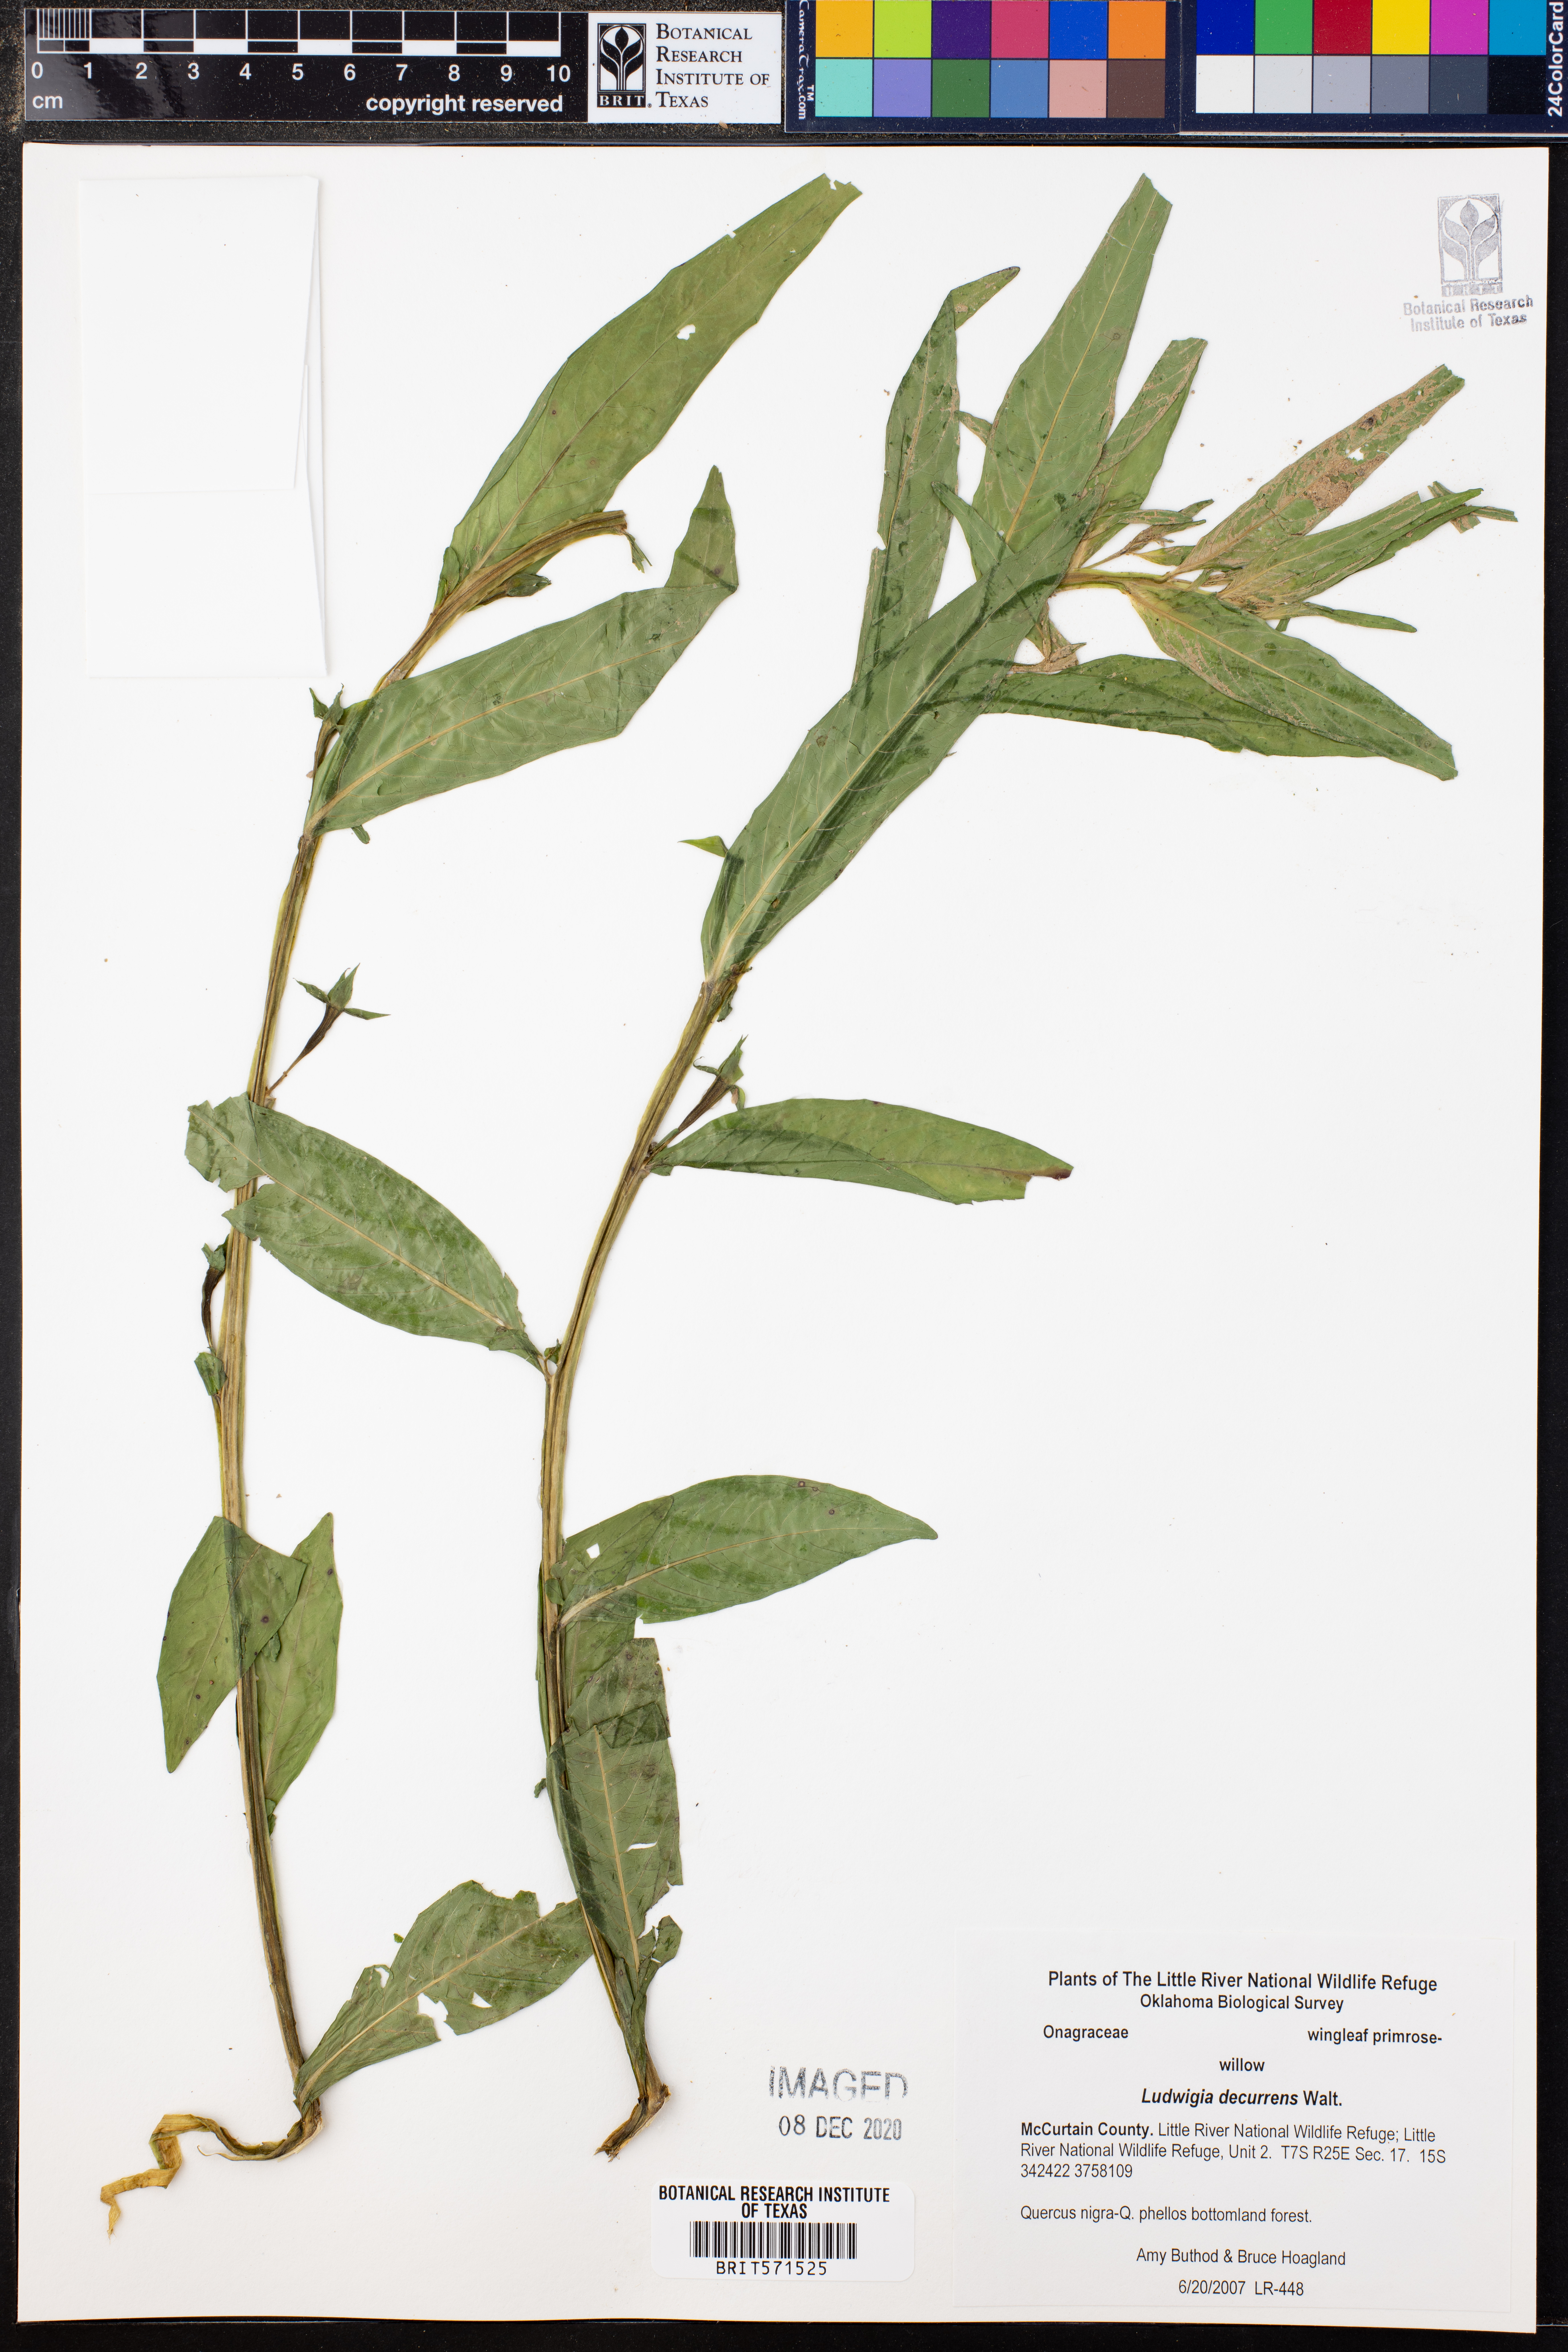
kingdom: Plantae
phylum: Tracheophyta
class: Magnoliopsida
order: Myrtales
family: Onagraceae
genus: Ludwigia
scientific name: Ludwigia decurrens
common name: Winged water-primrose
